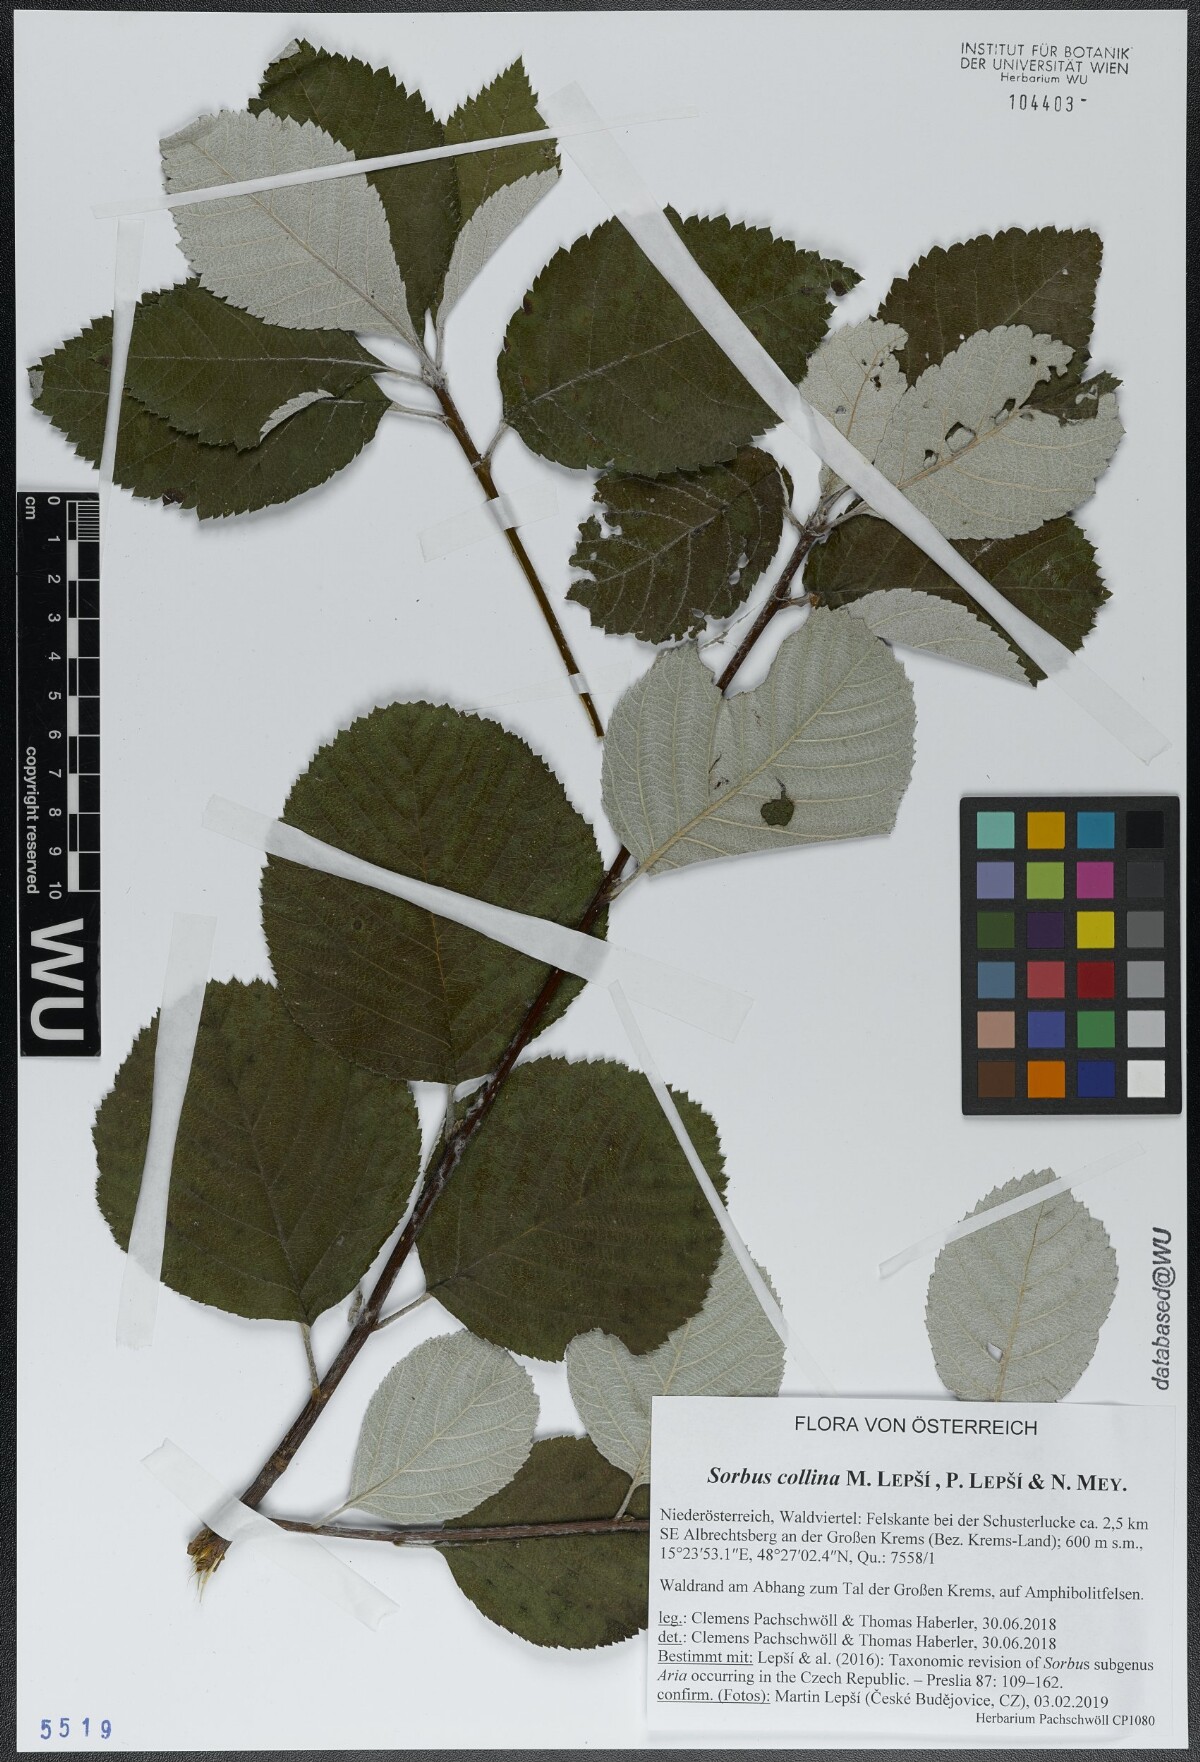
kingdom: Plantae
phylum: Tracheophyta
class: Magnoliopsida
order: Rosales
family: Rosaceae
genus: Aria
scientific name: Aria collina
